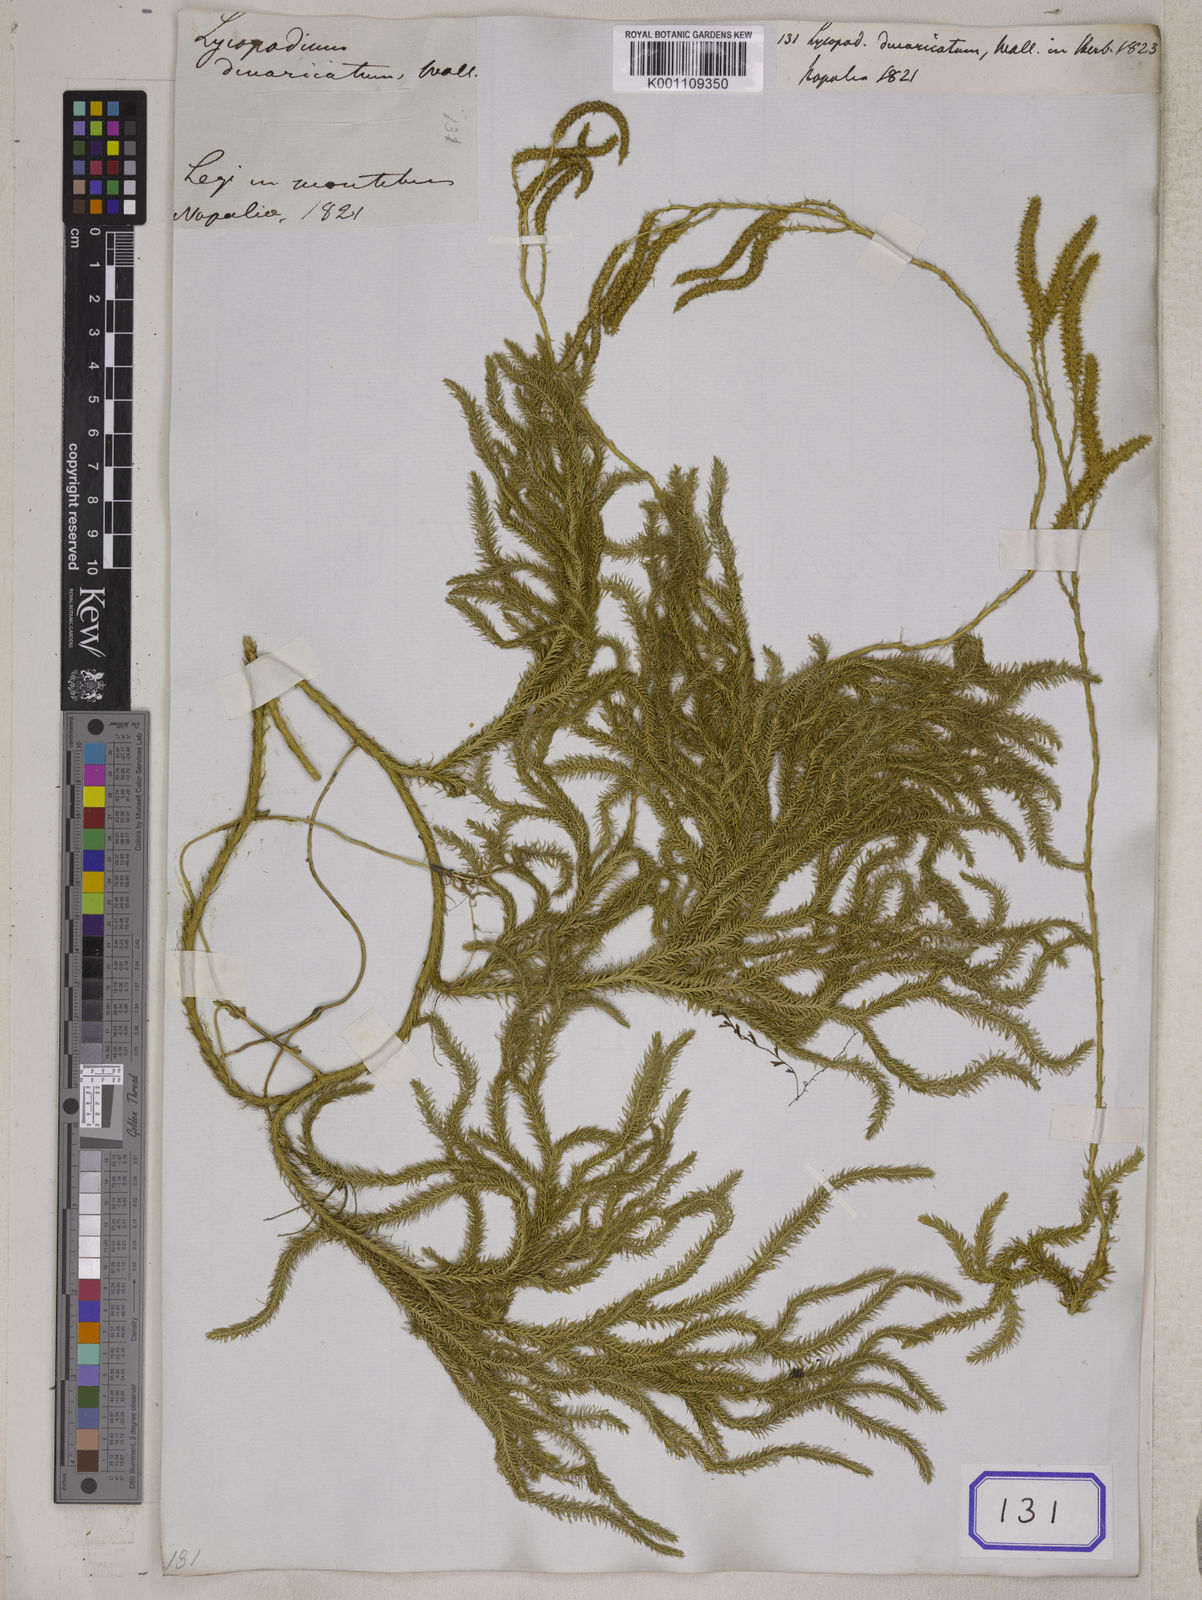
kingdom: Plantae
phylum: Tracheophyta
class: Lycopodiopsida
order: Lycopodiales
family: Lycopodiaceae
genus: Lycopodium
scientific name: Lycopodium japonicum
